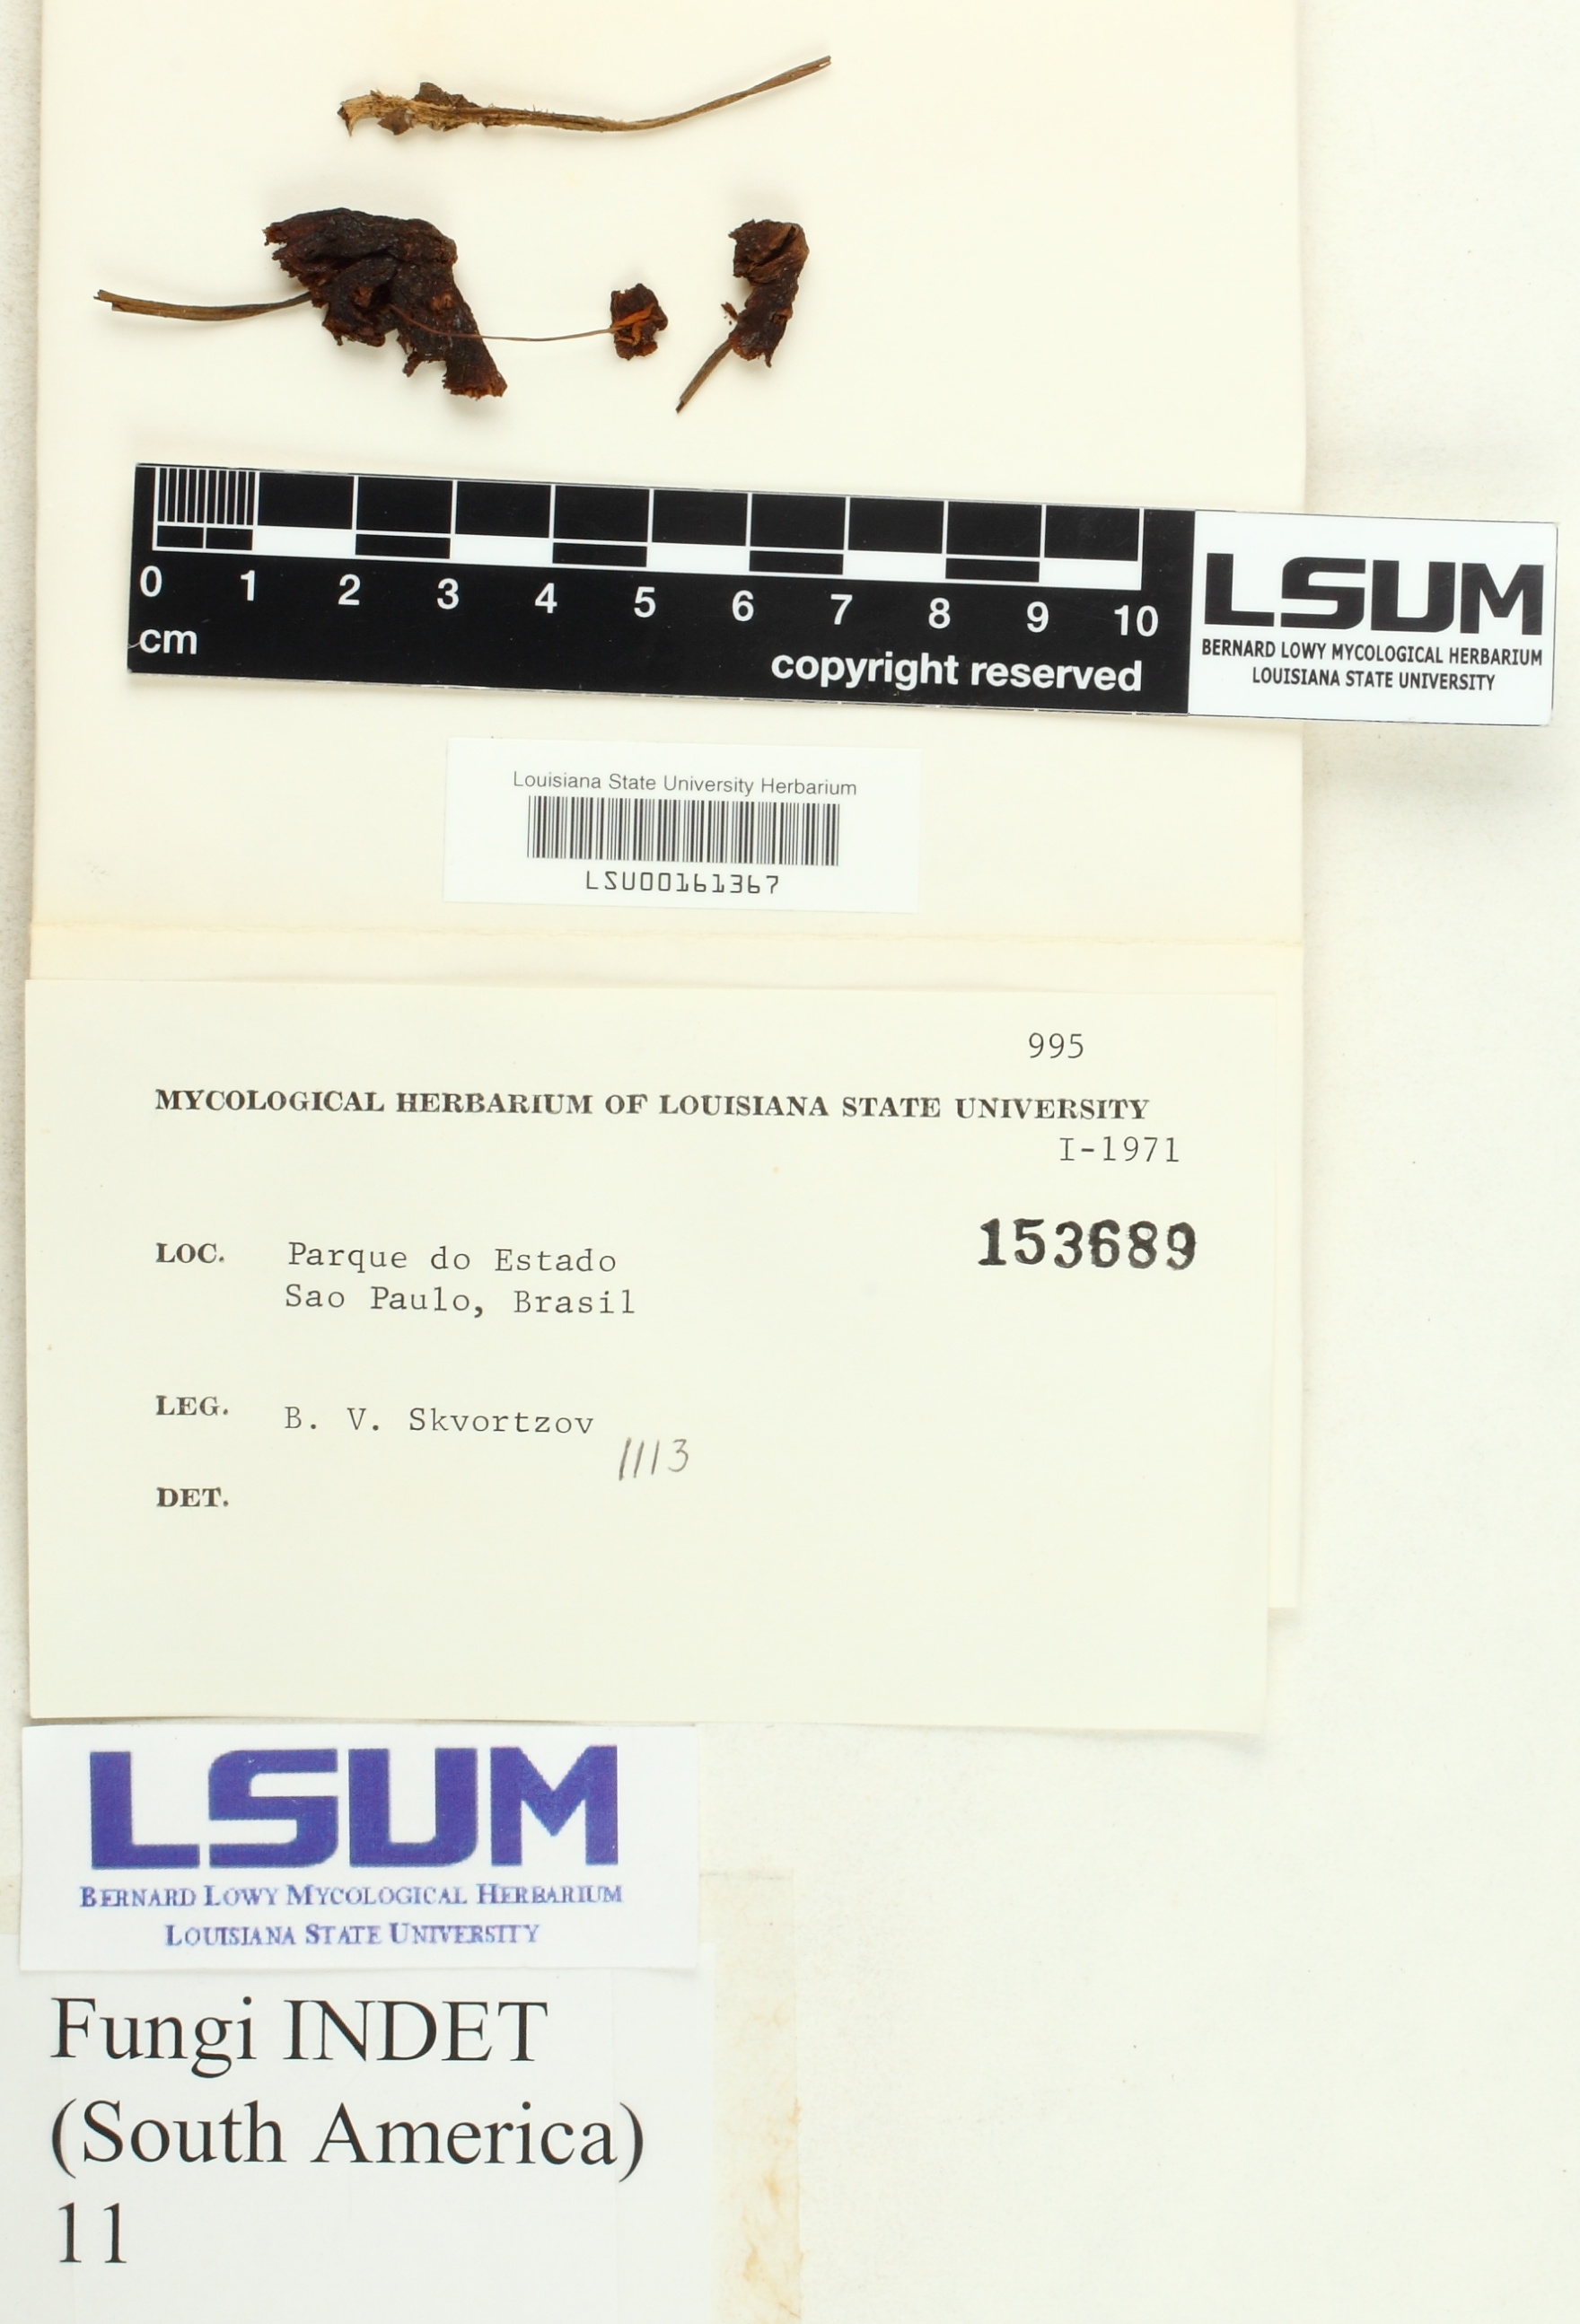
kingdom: Fungi
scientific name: Fungi
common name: Fungi
